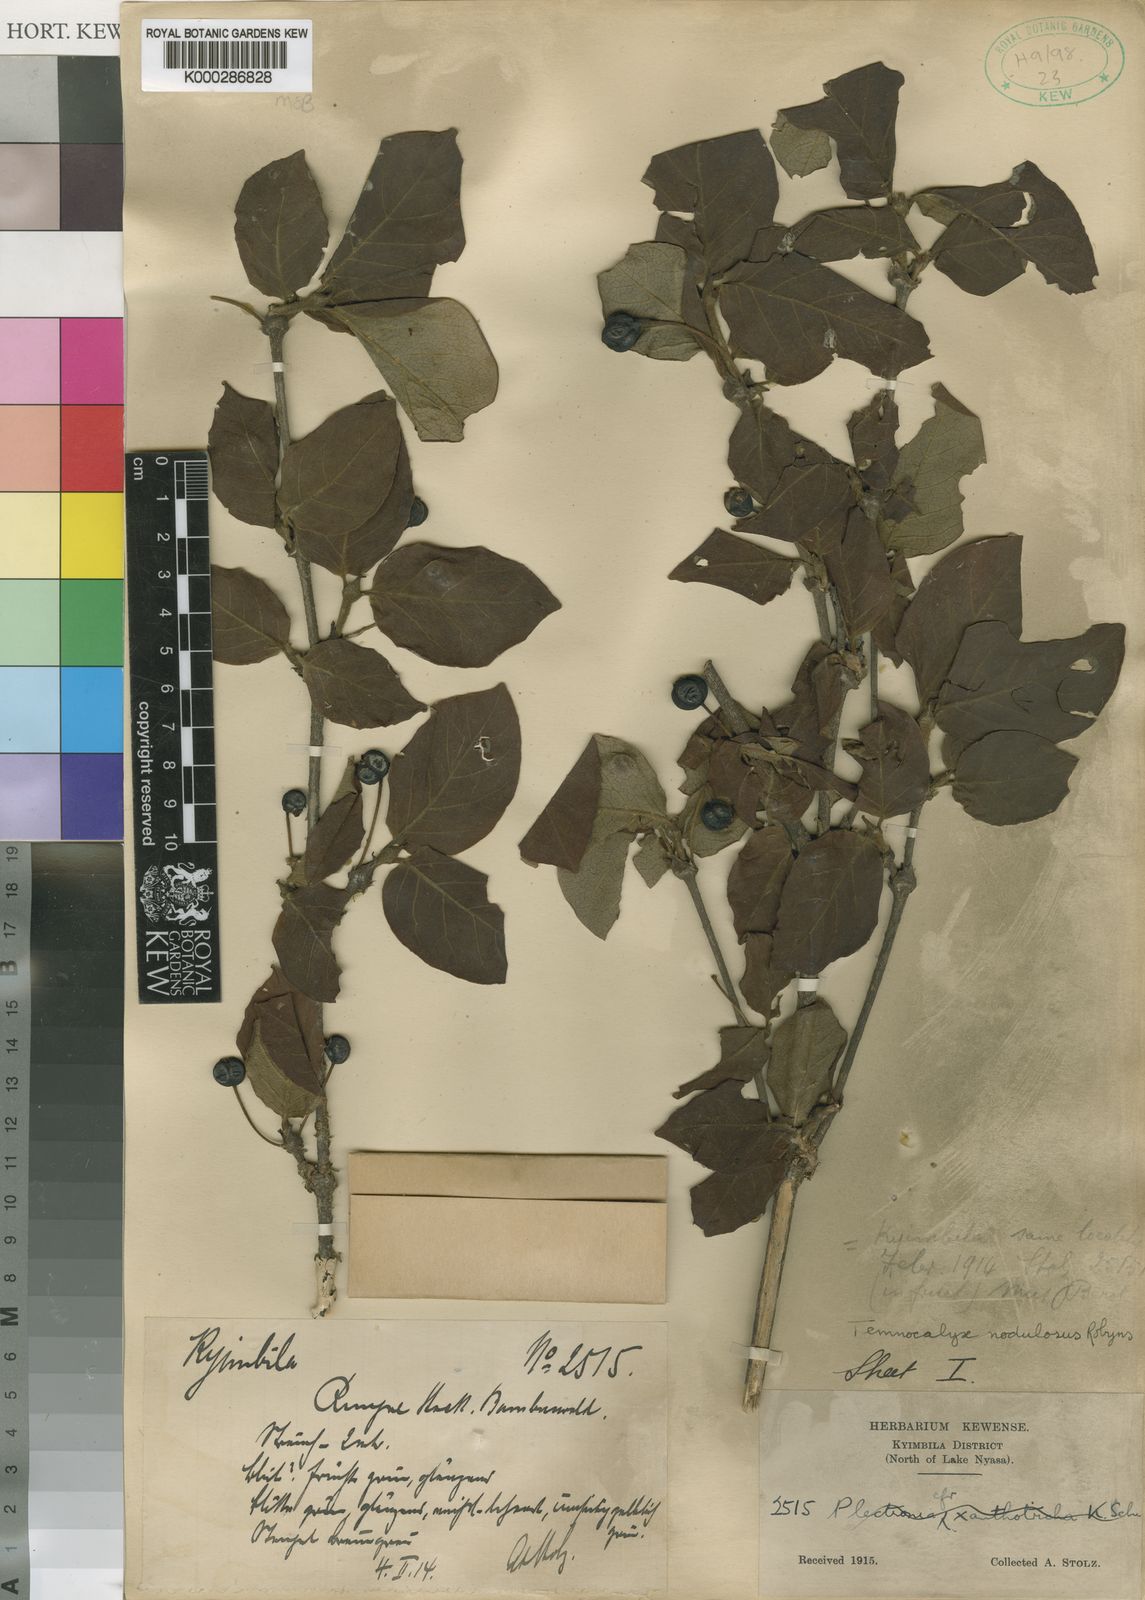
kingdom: Plantae
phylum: Tracheophyta
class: Magnoliopsida
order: Gentianales
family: Rubiaceae
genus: Temnocalyx
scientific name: Temnocalyx nodulosa
